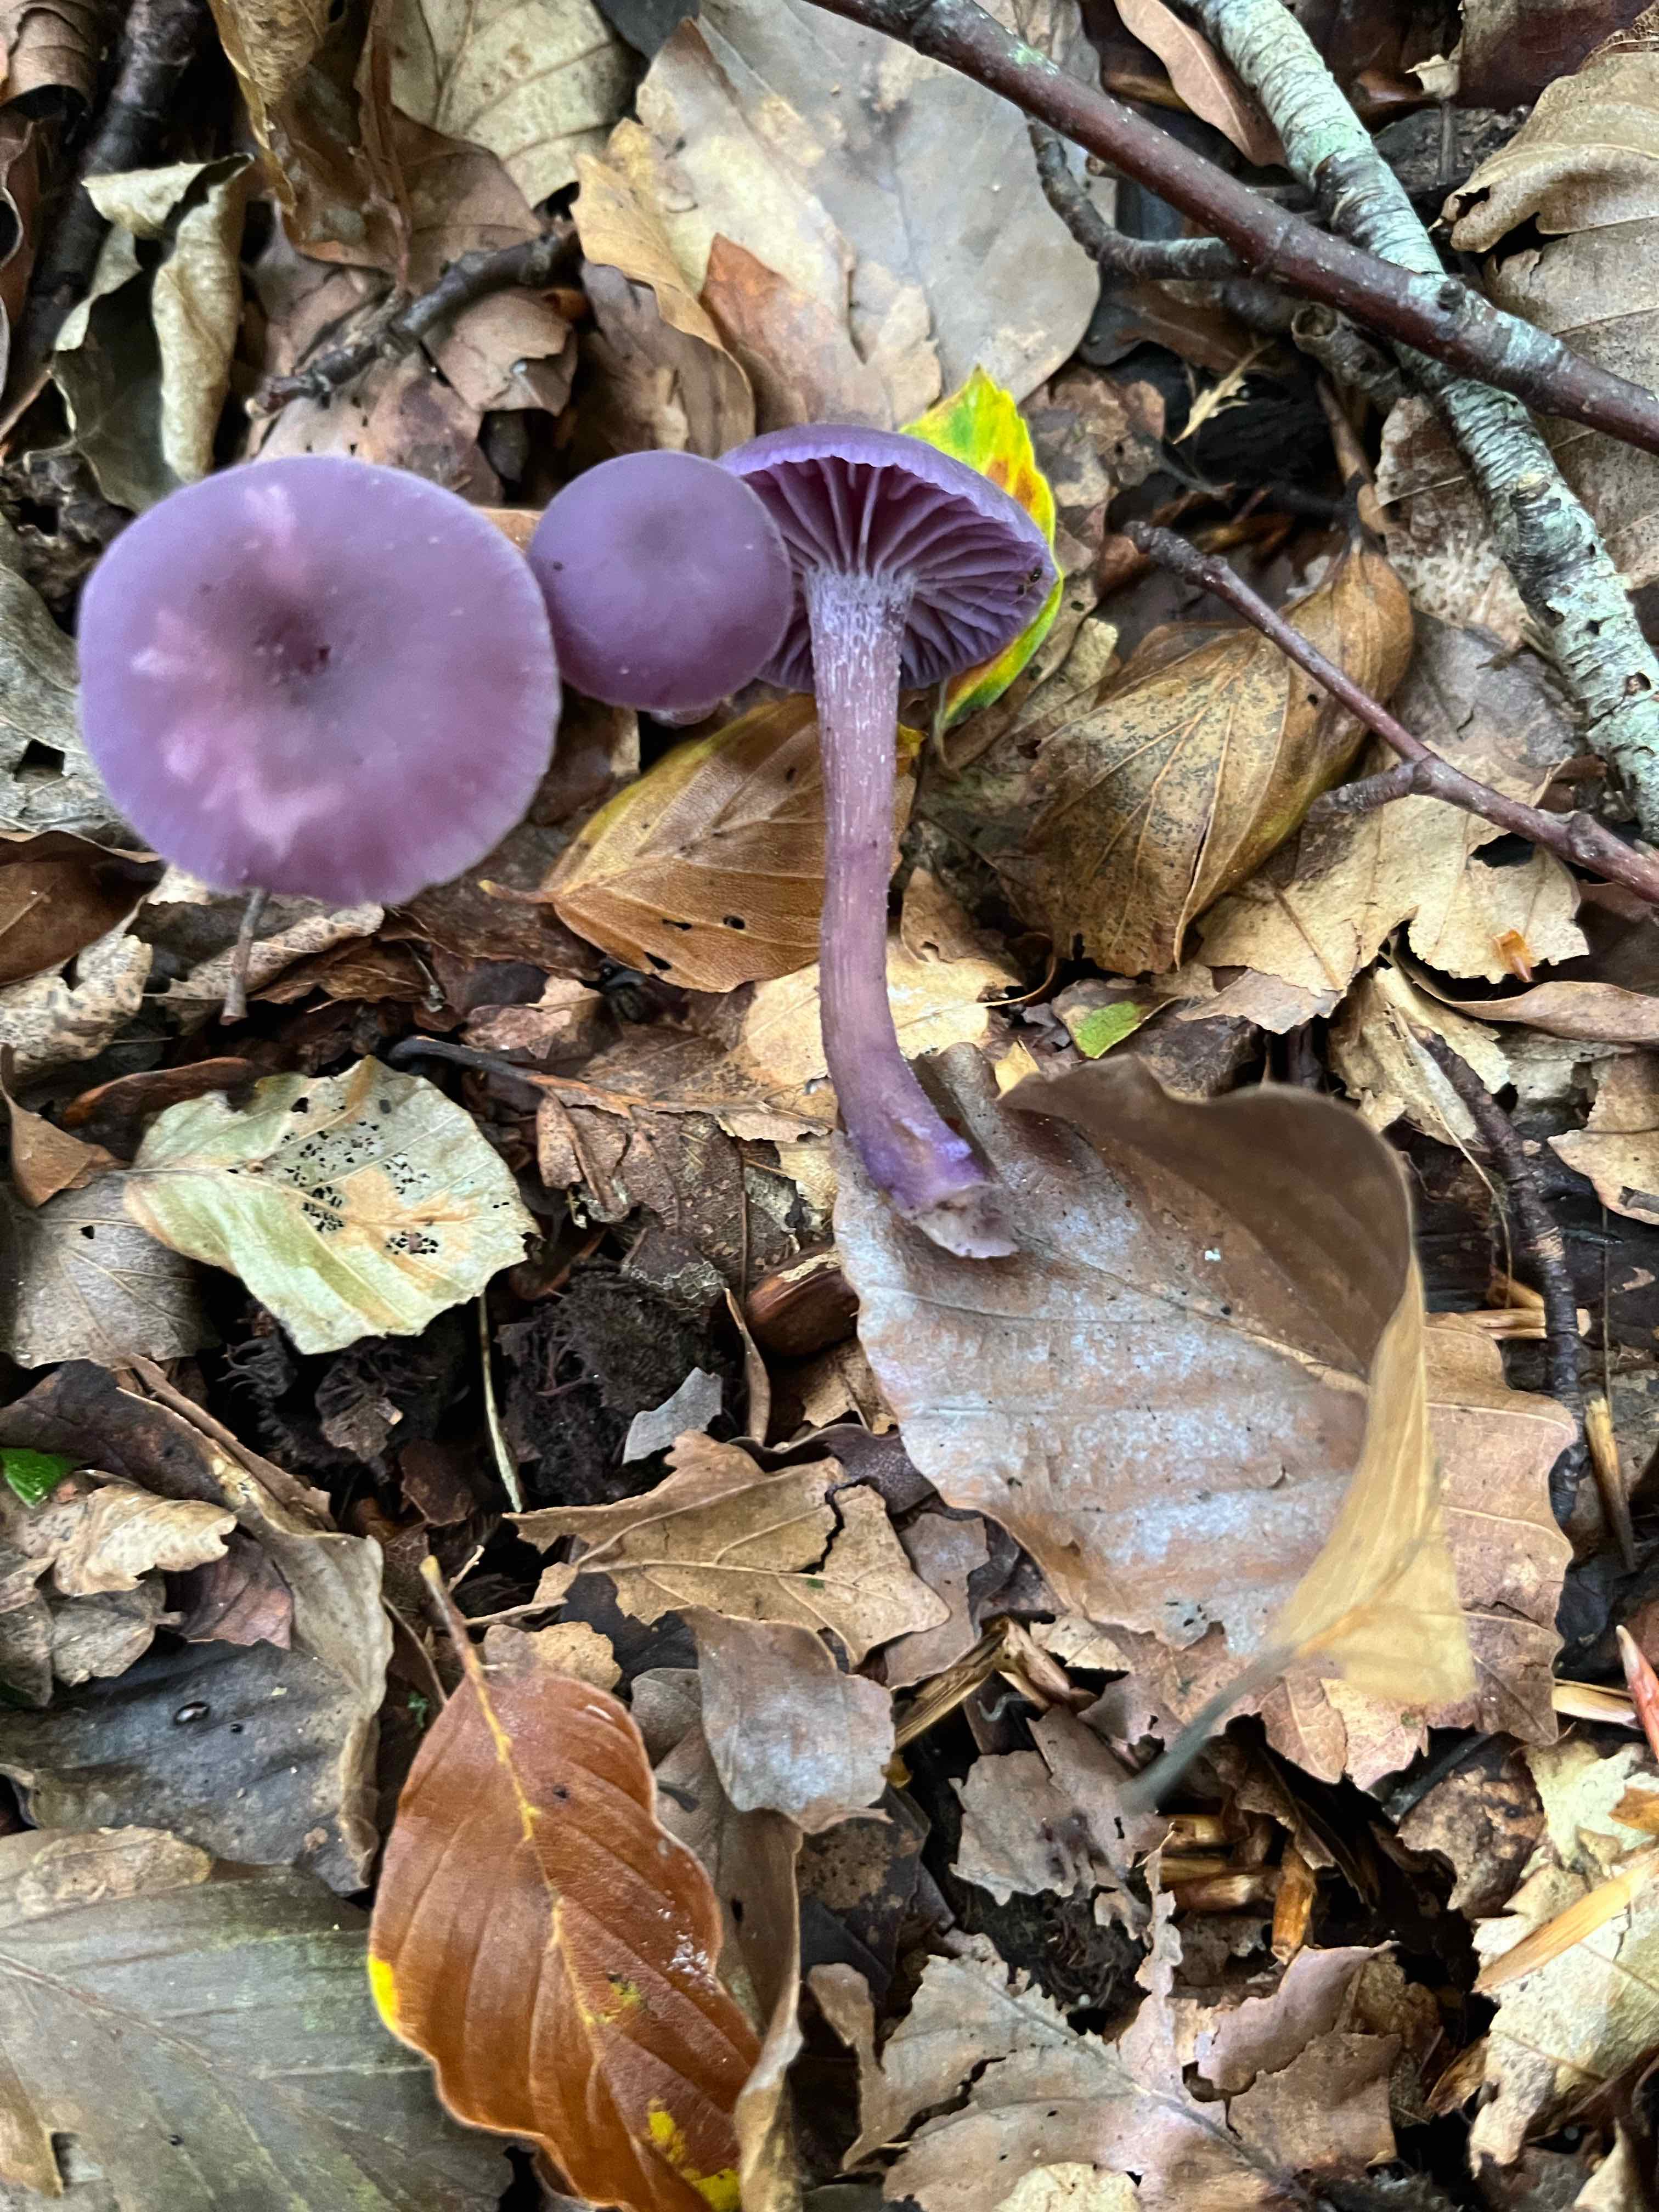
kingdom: Fungi
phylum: Basidiomycota
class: Agaricomycetes
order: Agaricales
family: Hydnangiaceae
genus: Laccaria
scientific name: Laccaria amethystina
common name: violet ametysthat
